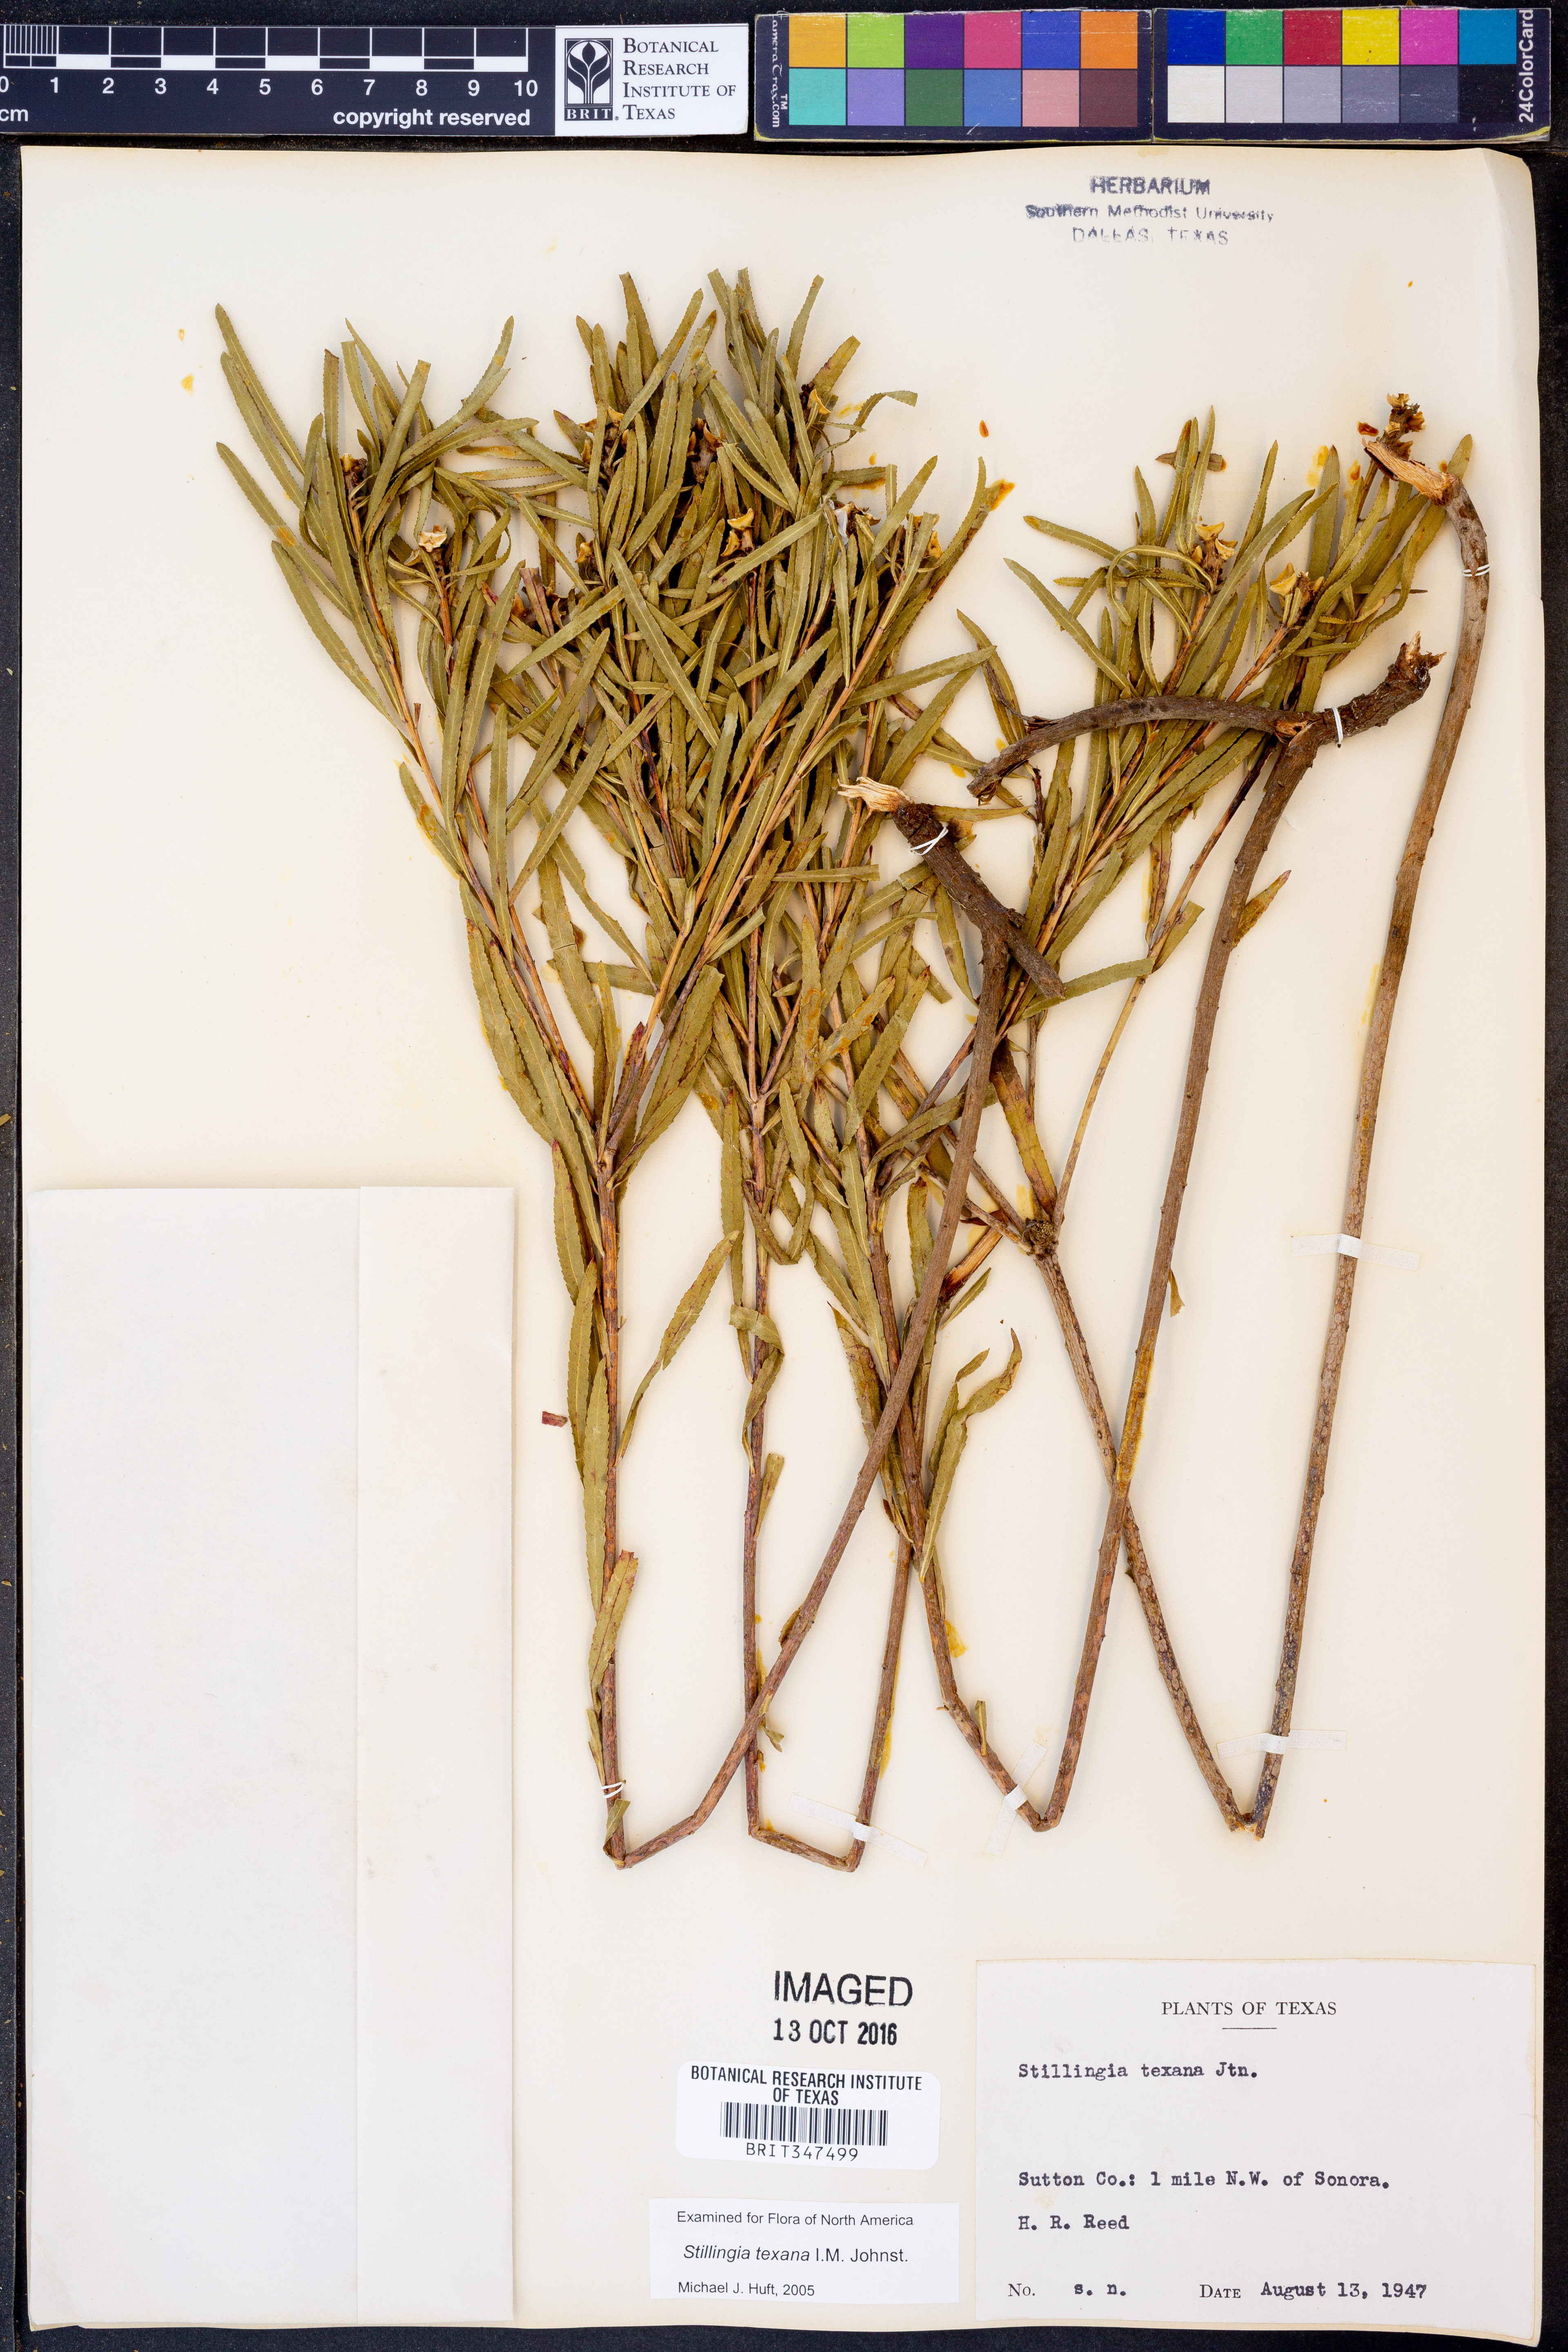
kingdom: Plantae
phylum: Tracheophyta
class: Magnoliopsida
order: Malpighiales
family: Euphorbiaceae
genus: Stillingia
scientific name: Stillingia texana
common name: Texas stillingia
